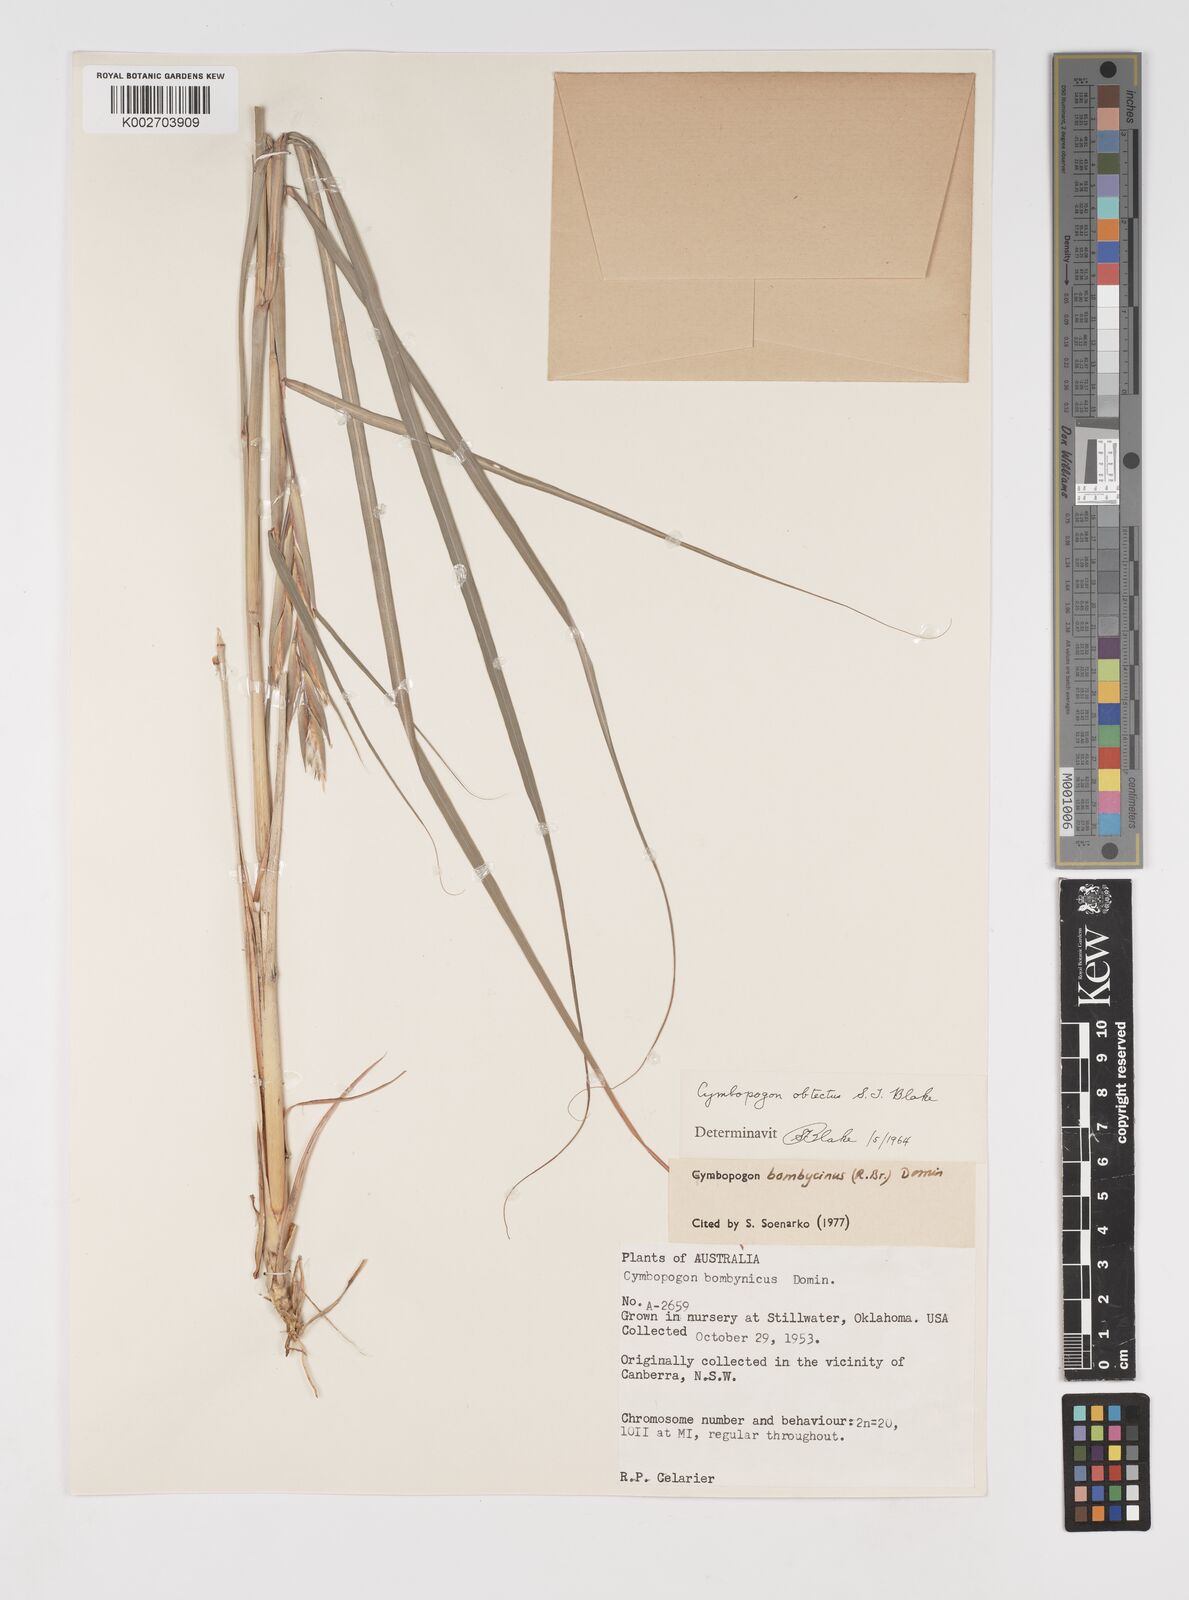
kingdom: Plantae
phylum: Tracheophyta
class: Liliopsida
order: Poales
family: Poaceae
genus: Cymbopogon
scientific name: Cymbopogon bombycinus
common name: Citronella grass
